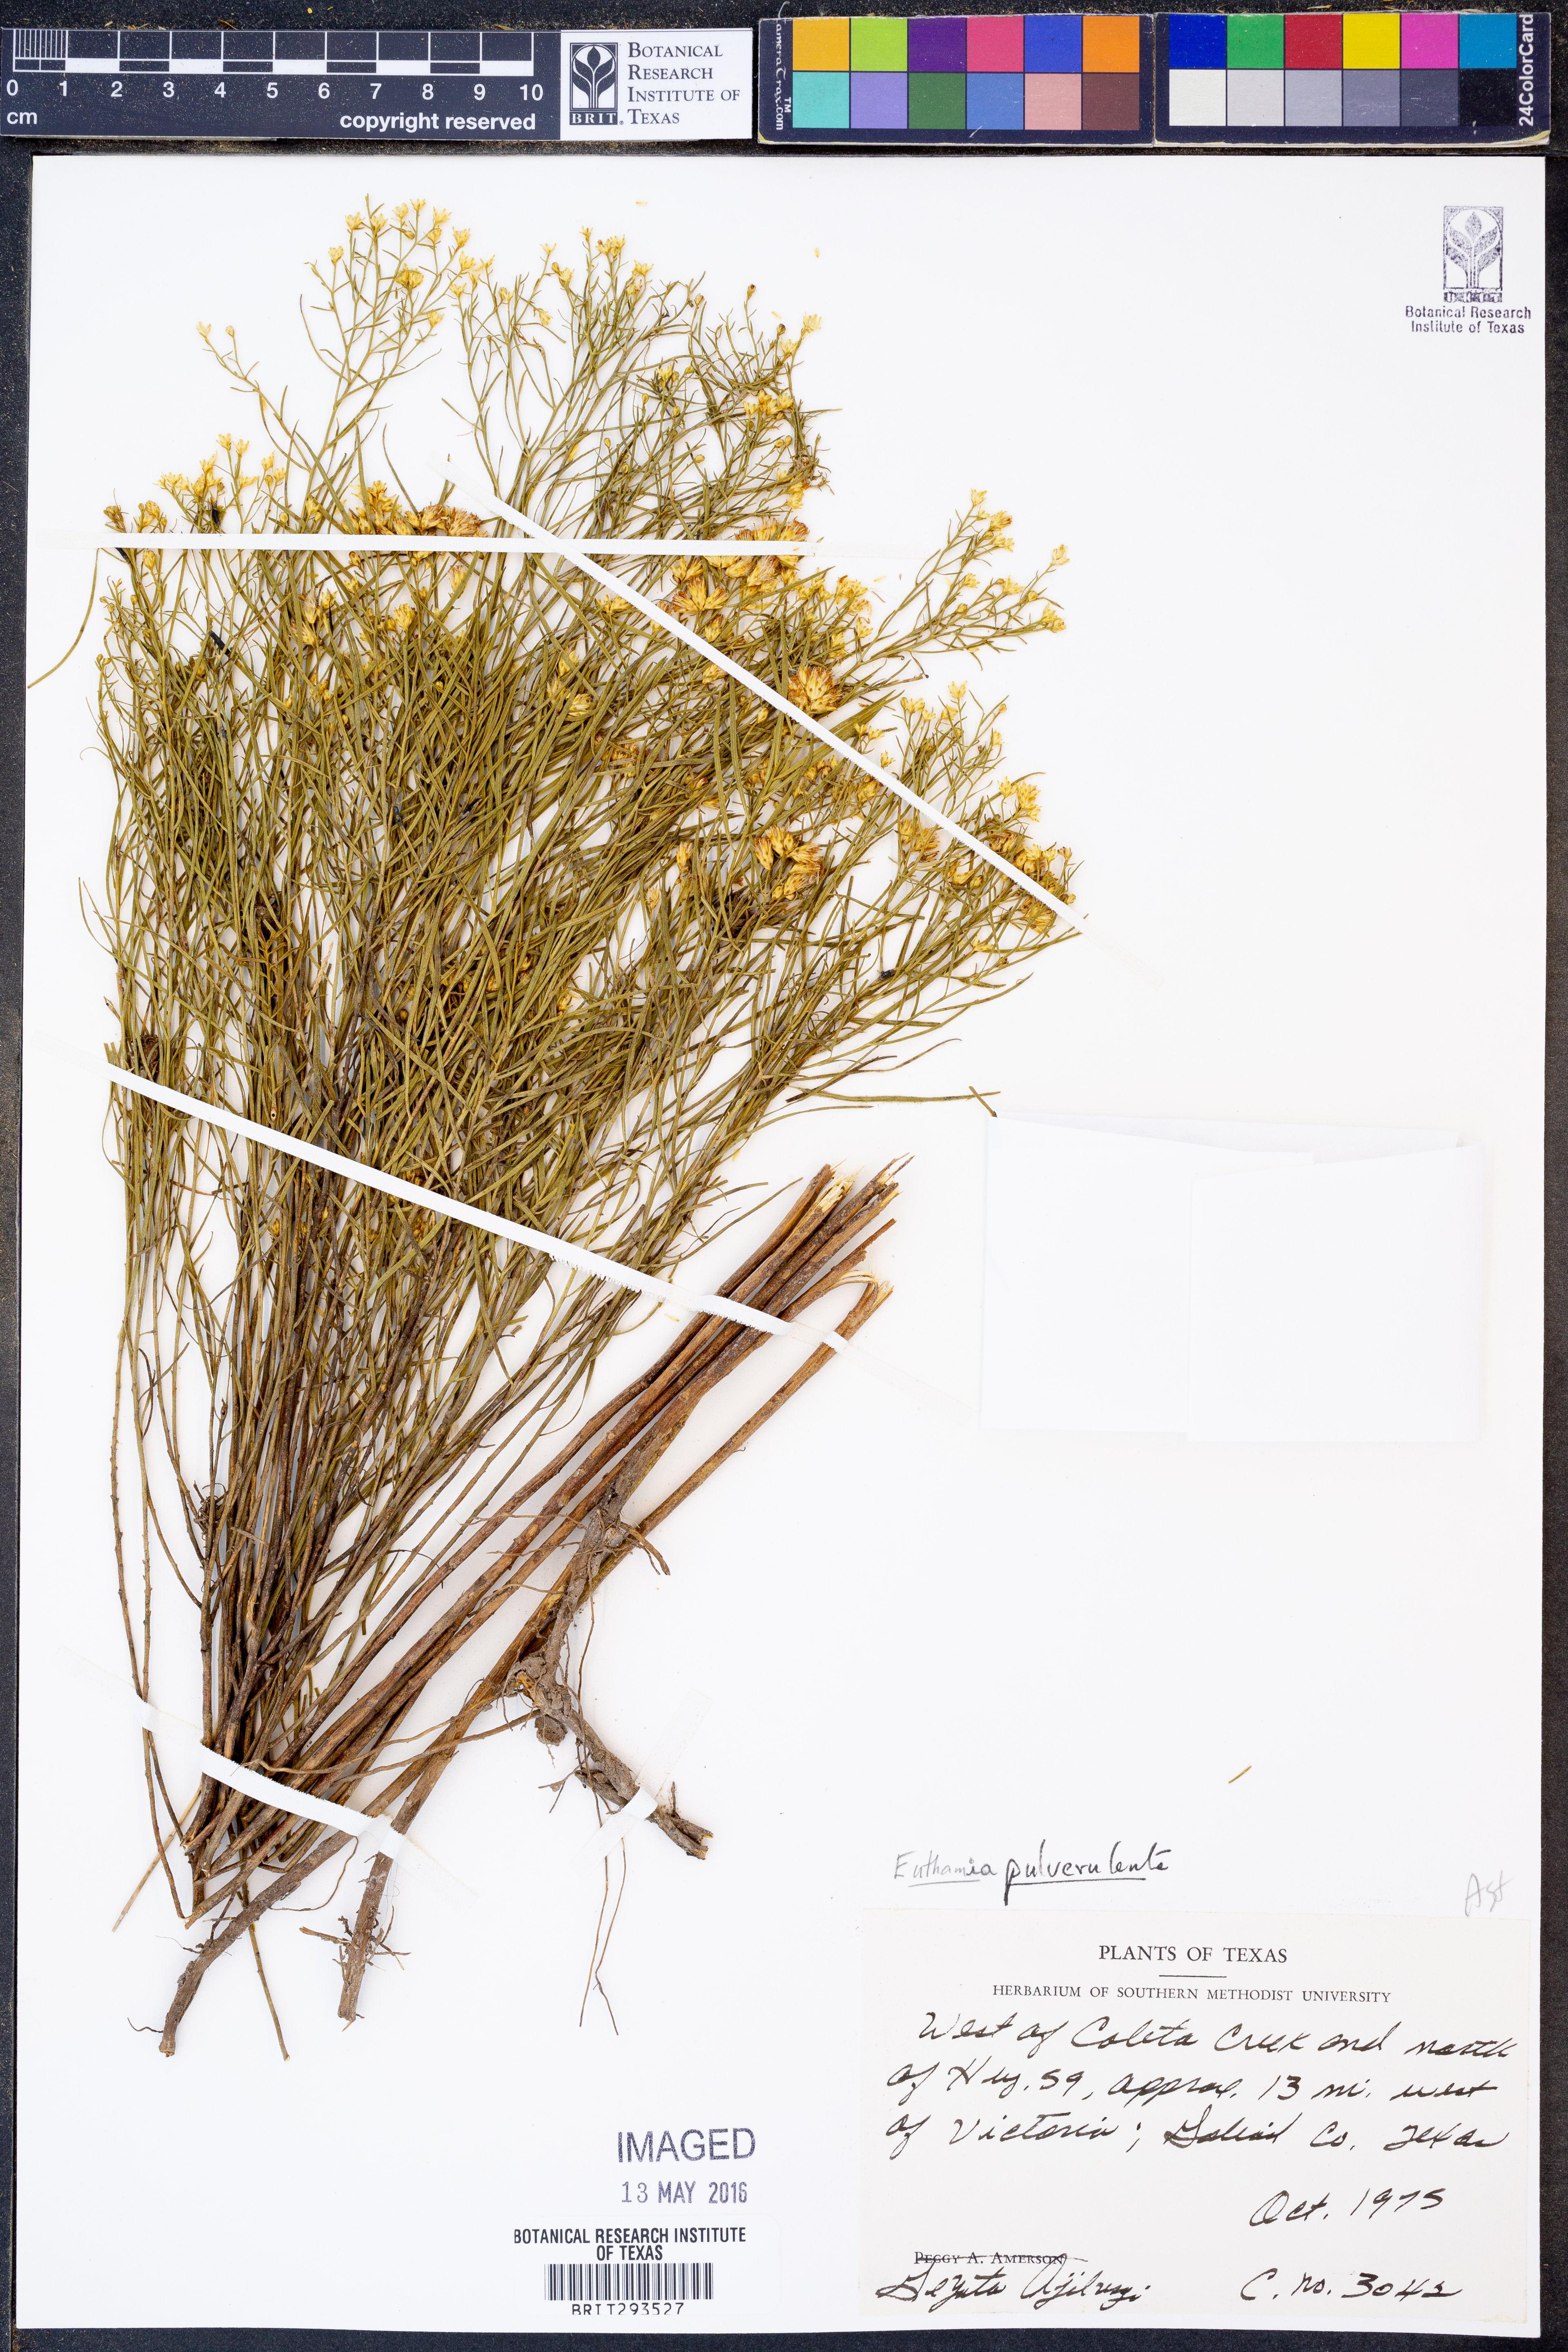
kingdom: Plantae
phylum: Tracheophyta
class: Magnoliopsida
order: Asterales
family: Asteraceae
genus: Euthamia
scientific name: Euthamia pulverulenta
